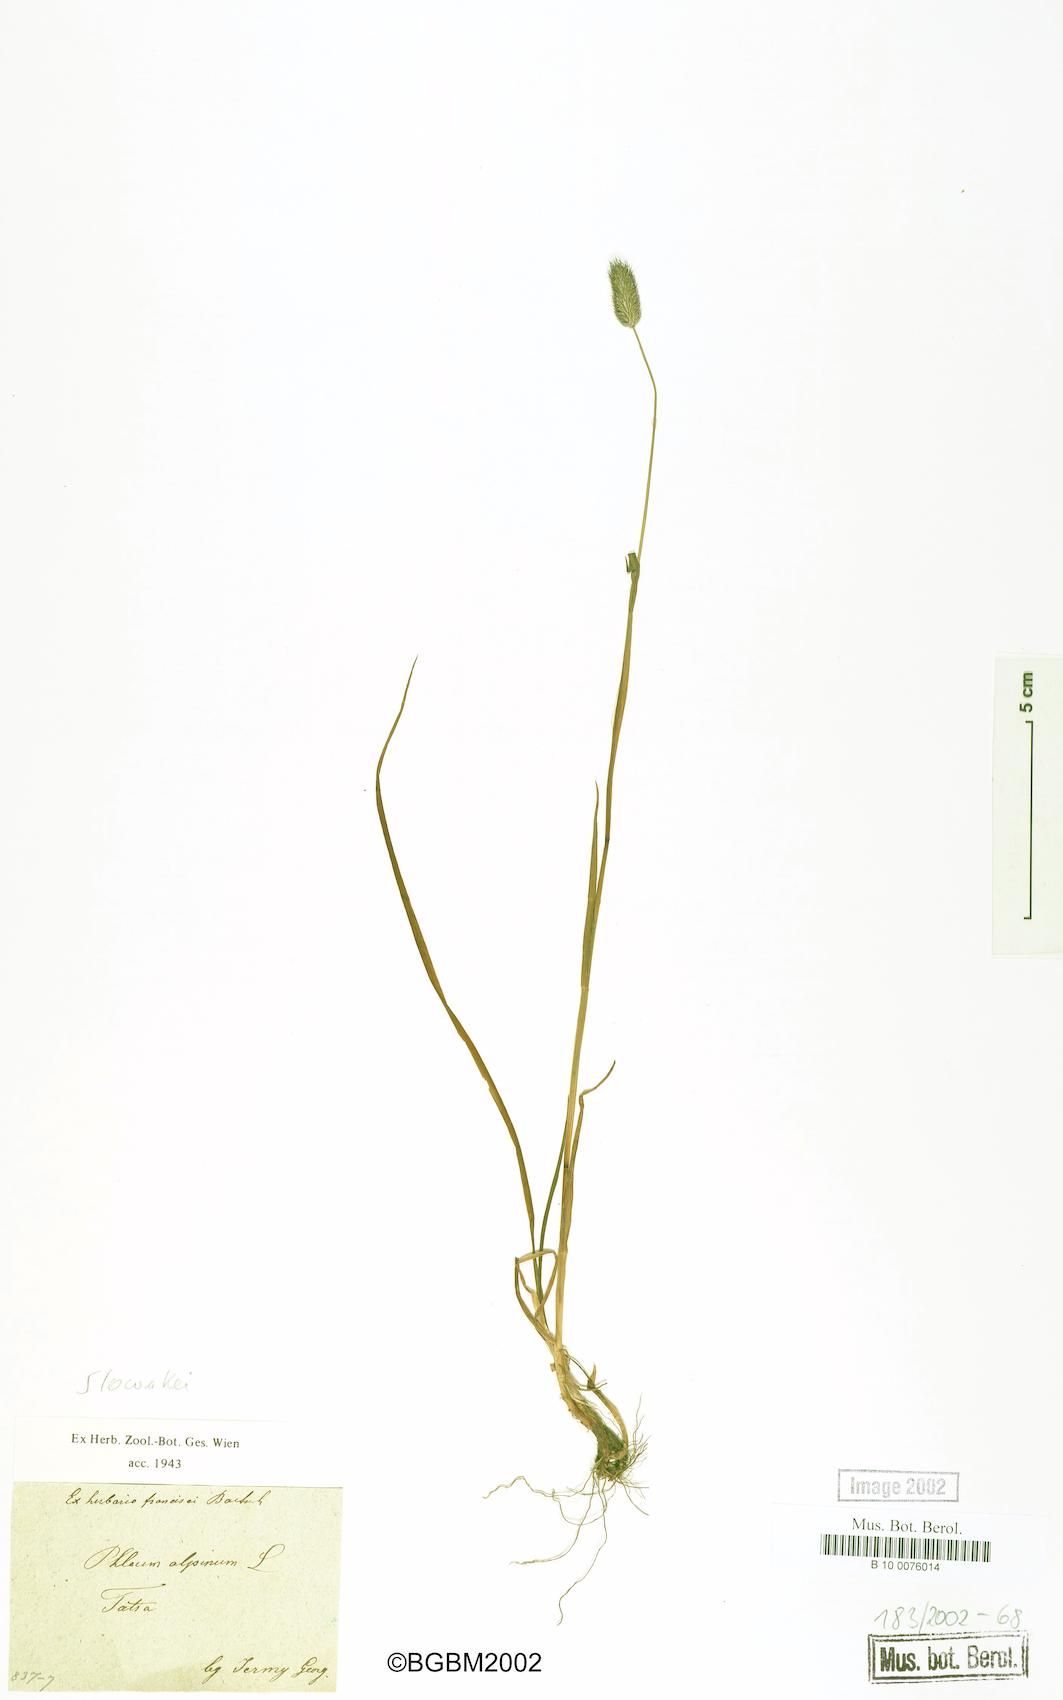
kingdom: Plantae
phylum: Tracheophyta
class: Liliopsida
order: Poales
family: Poaceae
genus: Phleum
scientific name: Phleum alpinum
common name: Alpine cat's-tail
